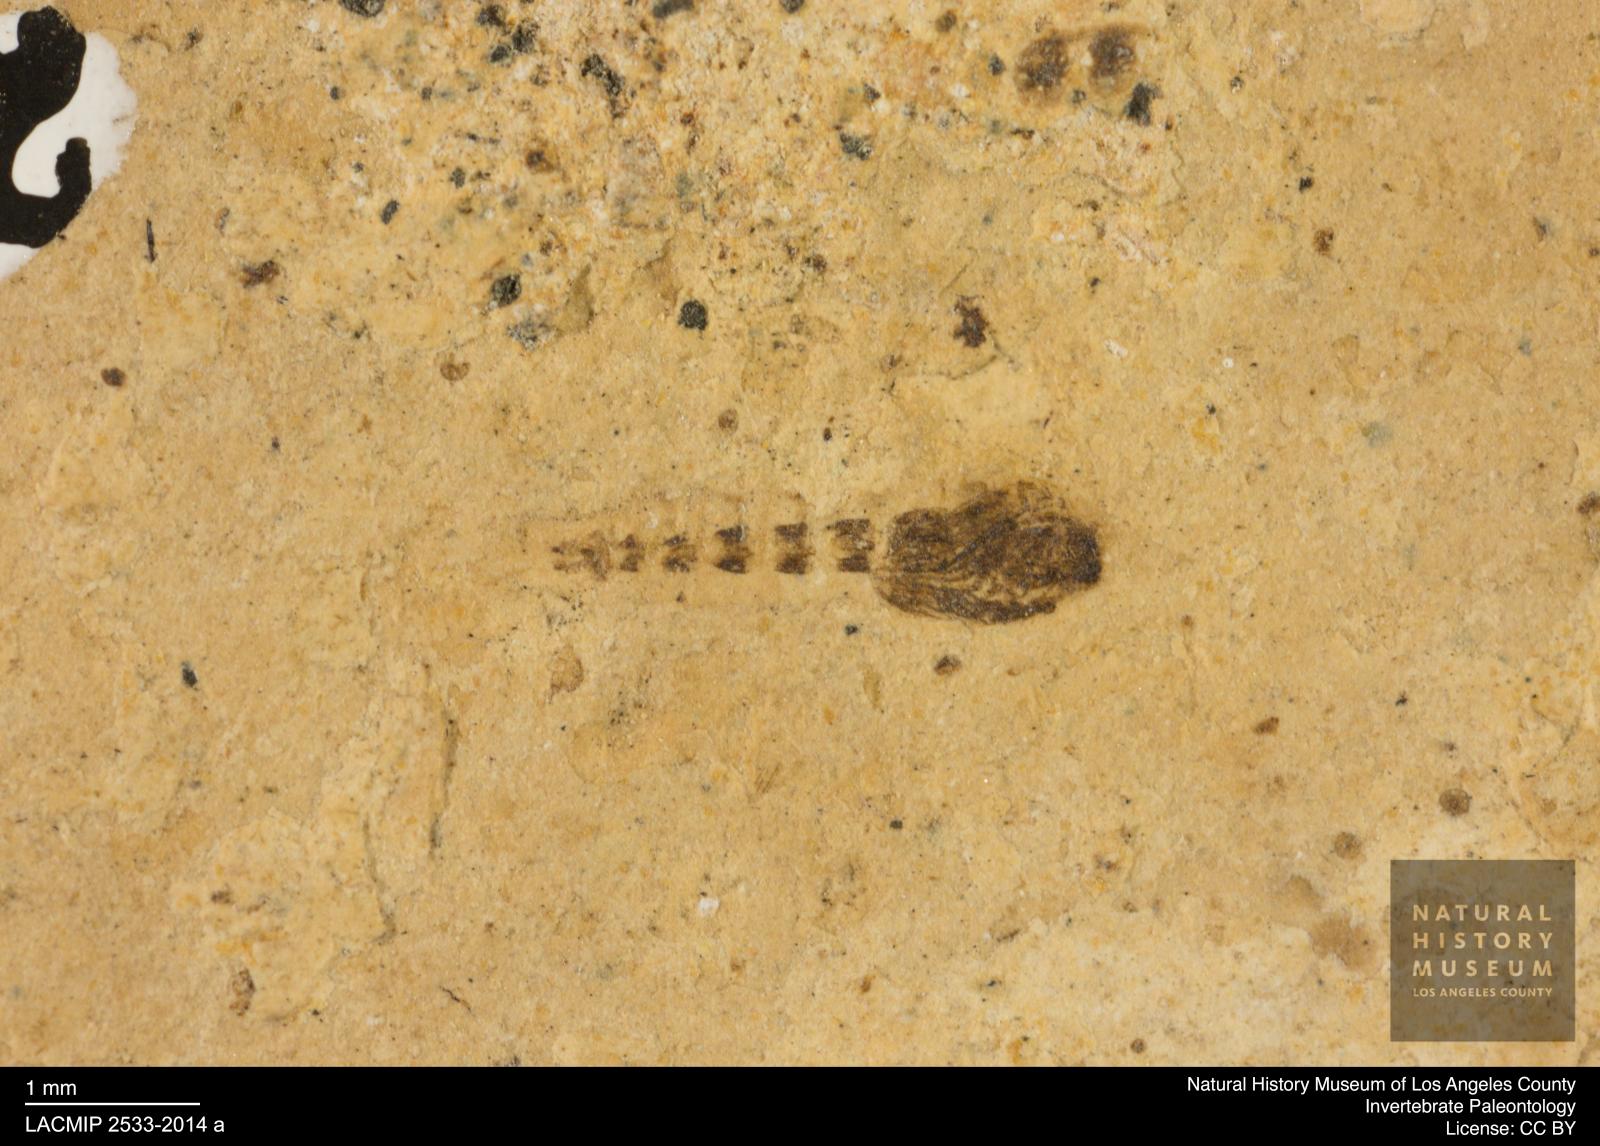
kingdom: Animalia
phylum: Arthropoda
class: Insecta
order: Diptera
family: Ceratopogonidae
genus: Ceratopogon
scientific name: Ceratopogon
